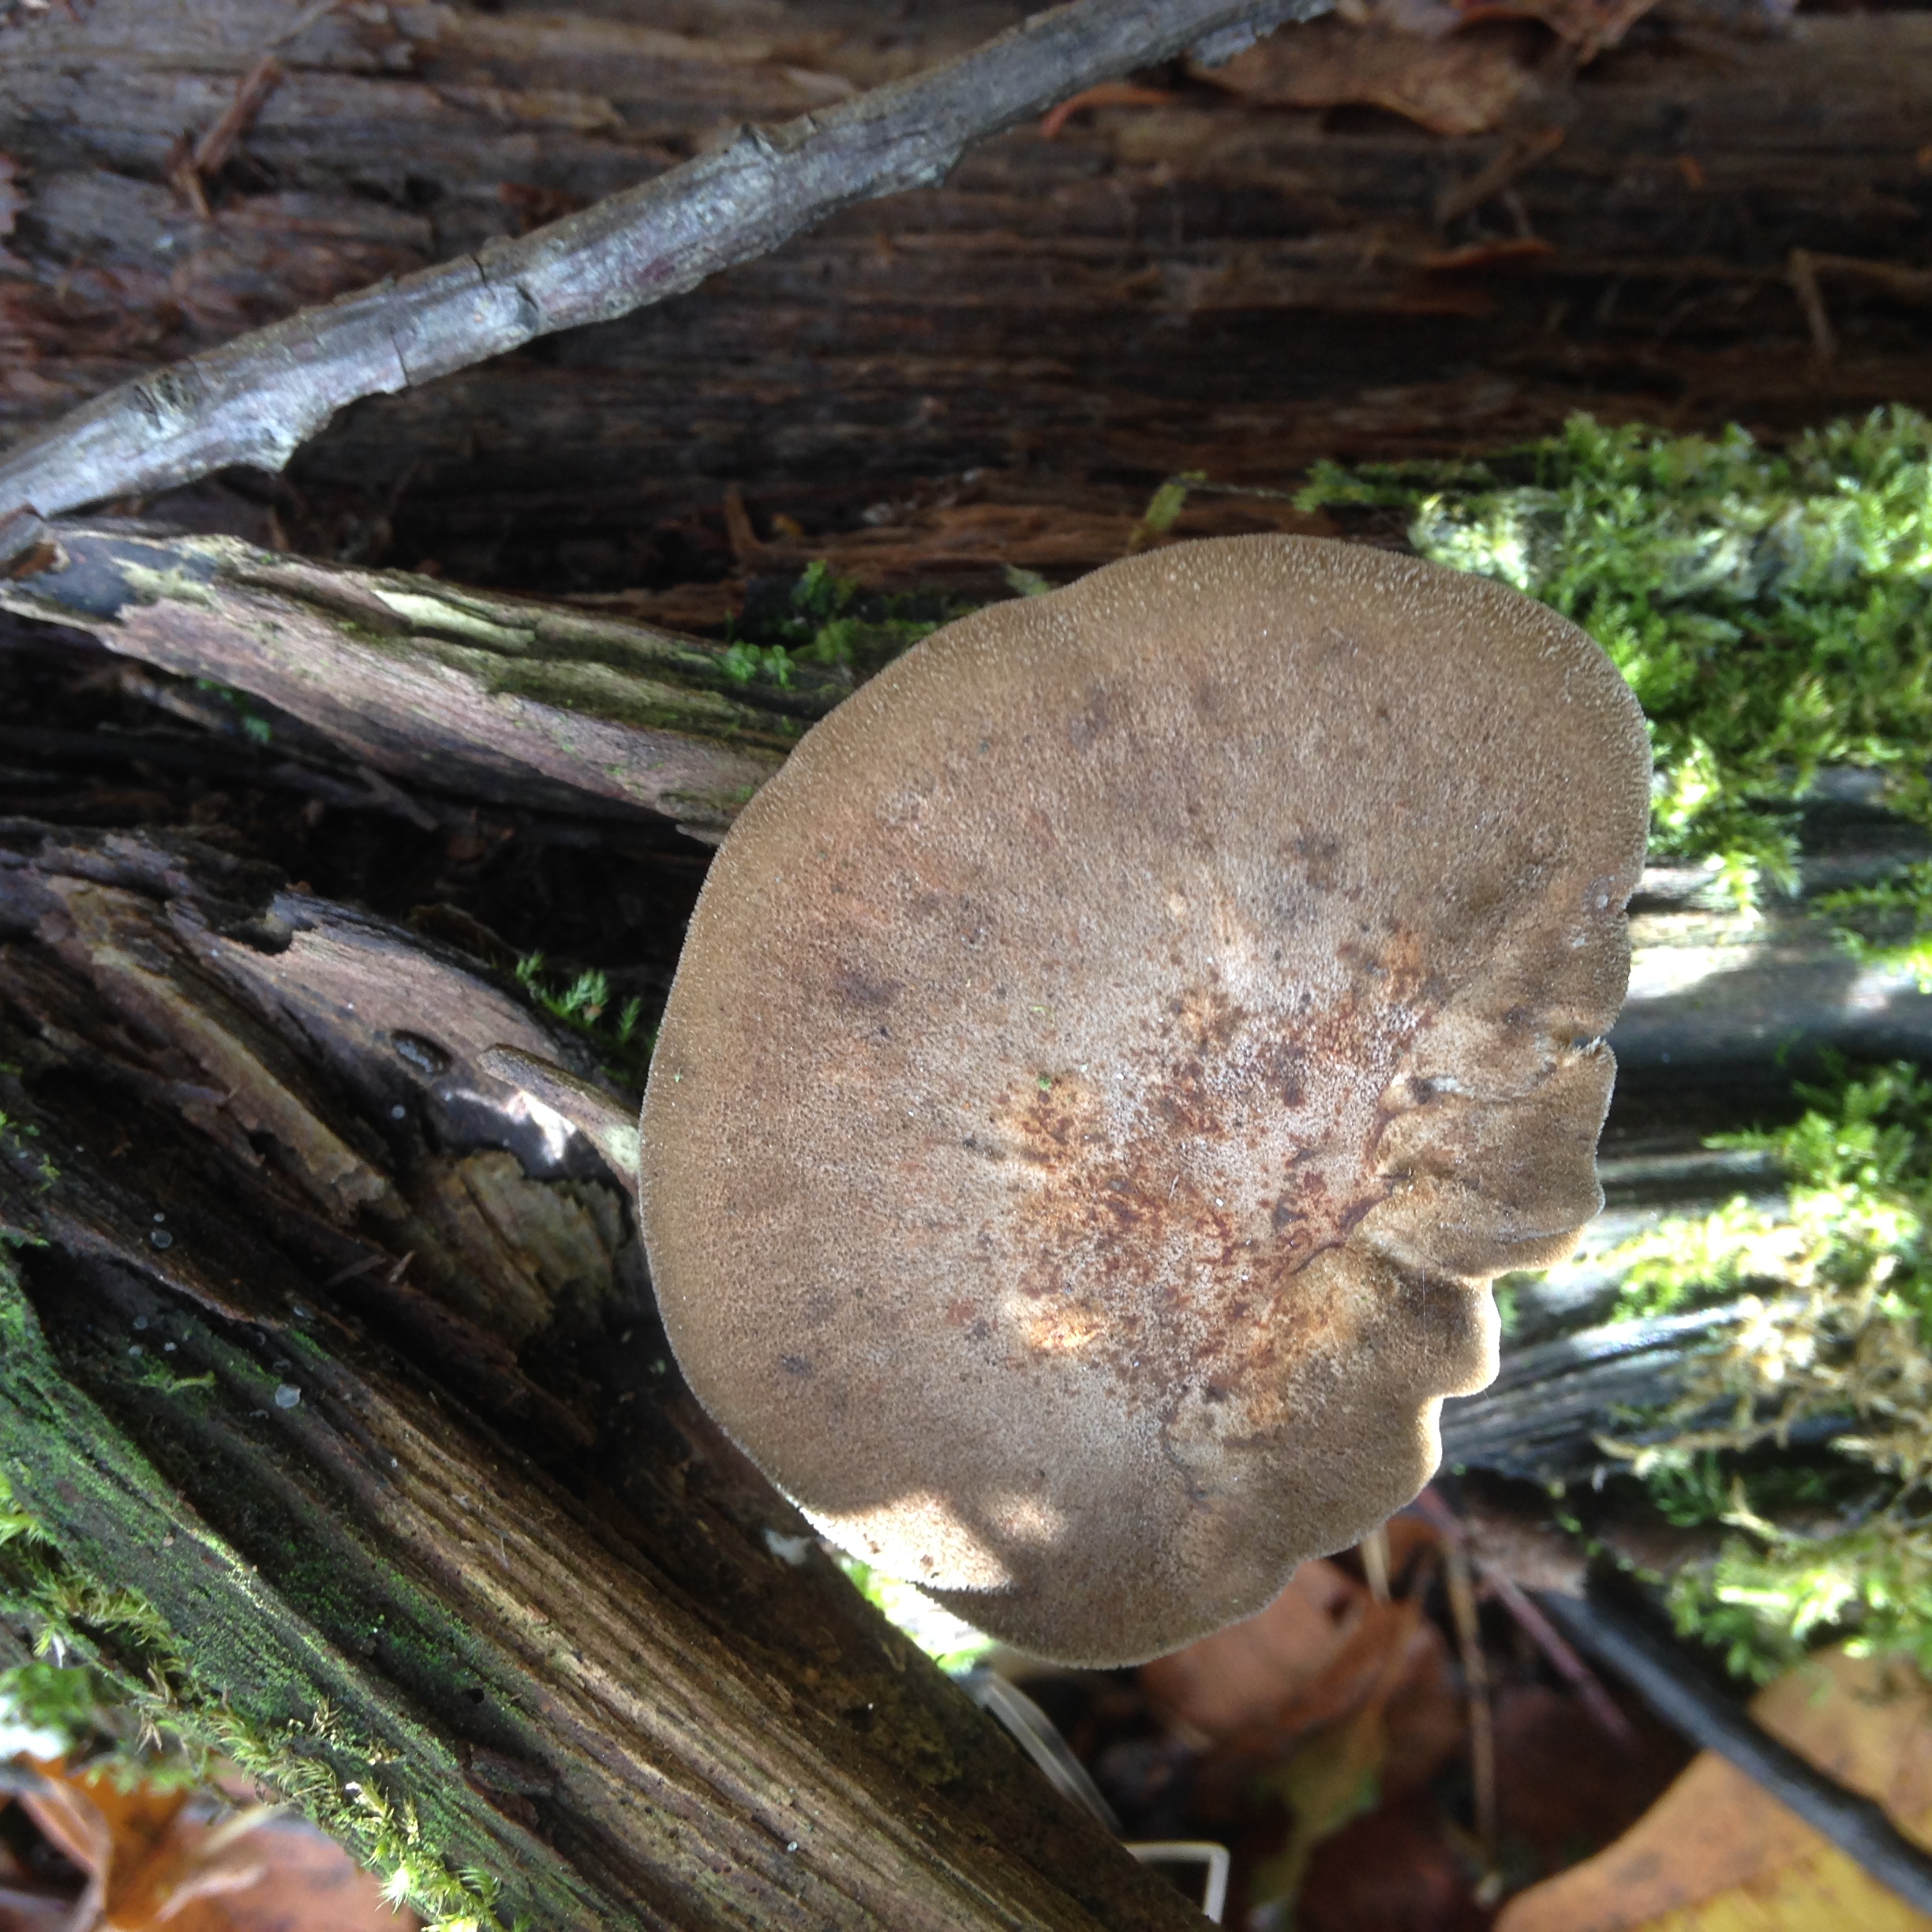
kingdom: Fungi
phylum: Basidiomycota
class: Agaricomycetes
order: Polyporales
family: Polyporaceae
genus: Lentinus
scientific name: Lentinus brumalis
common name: Winter polypore
